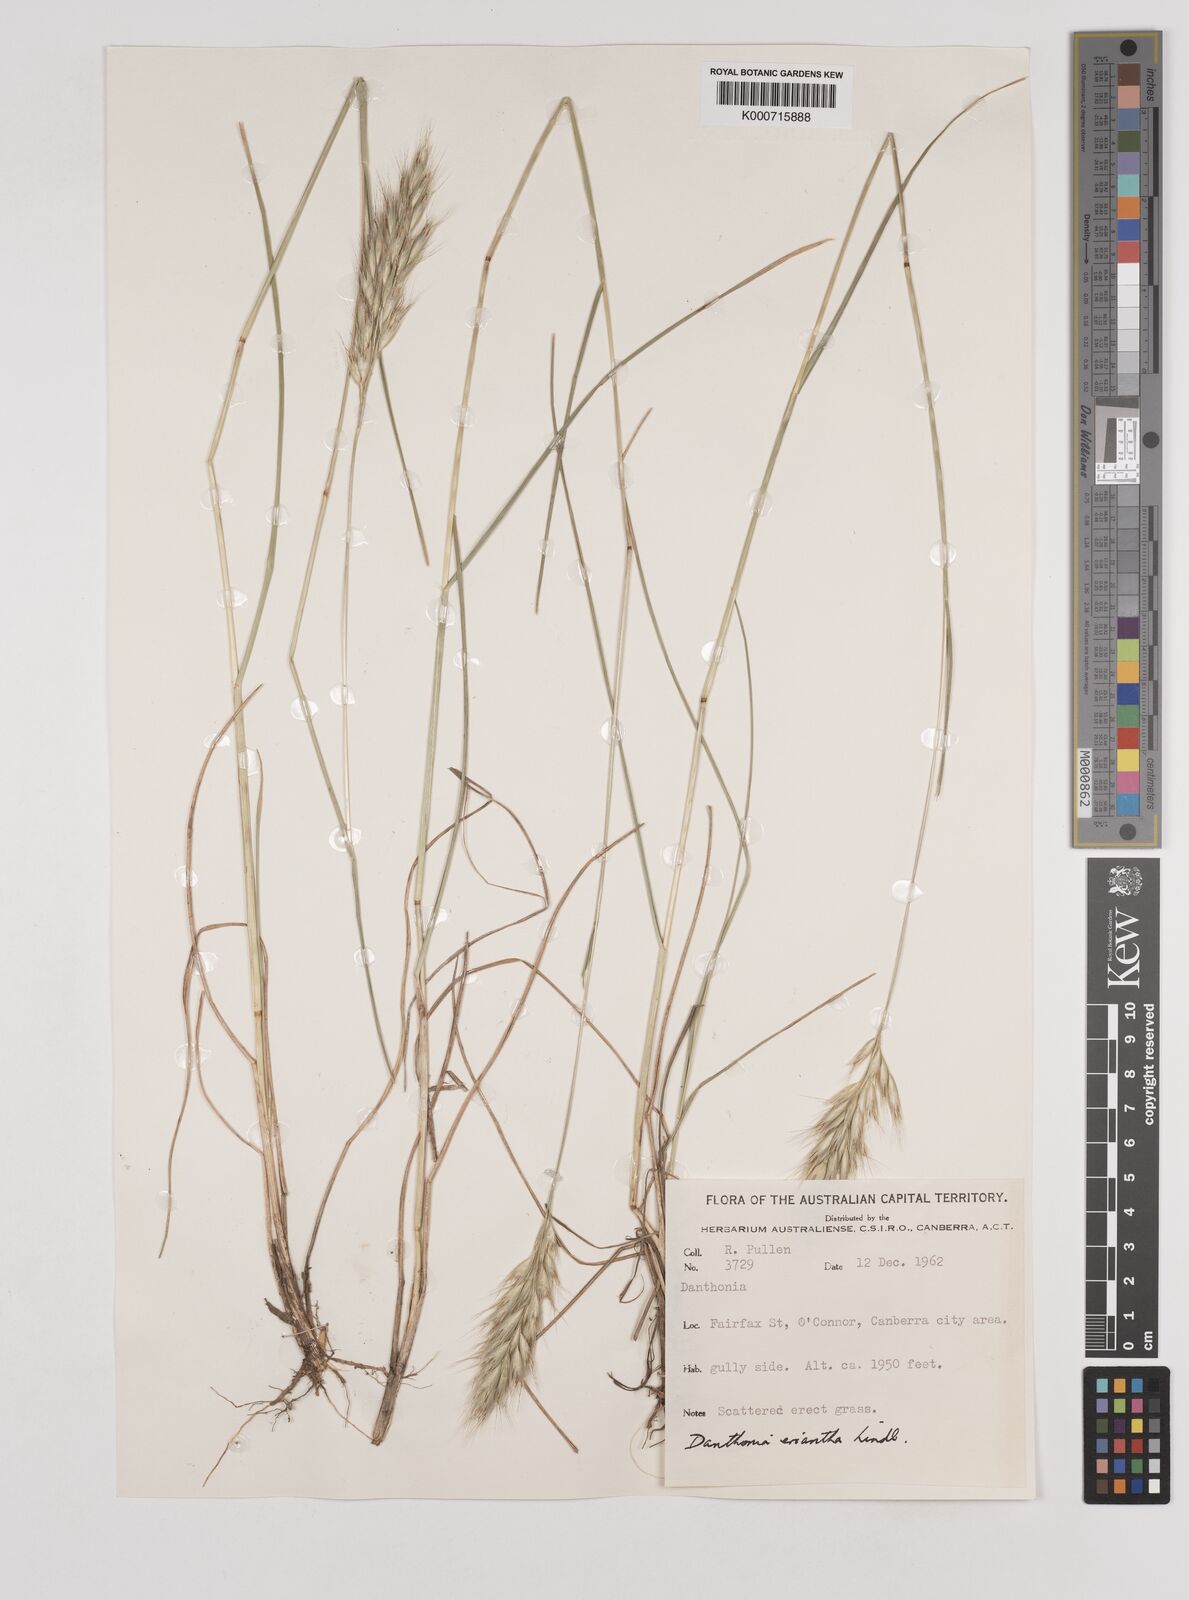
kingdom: Plantae
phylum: Tracheophyta
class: Liliopsida
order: Poales
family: Poaceae
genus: Rytidosperma
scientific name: Rytidosperma erianthum
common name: Hill wallaby grass
